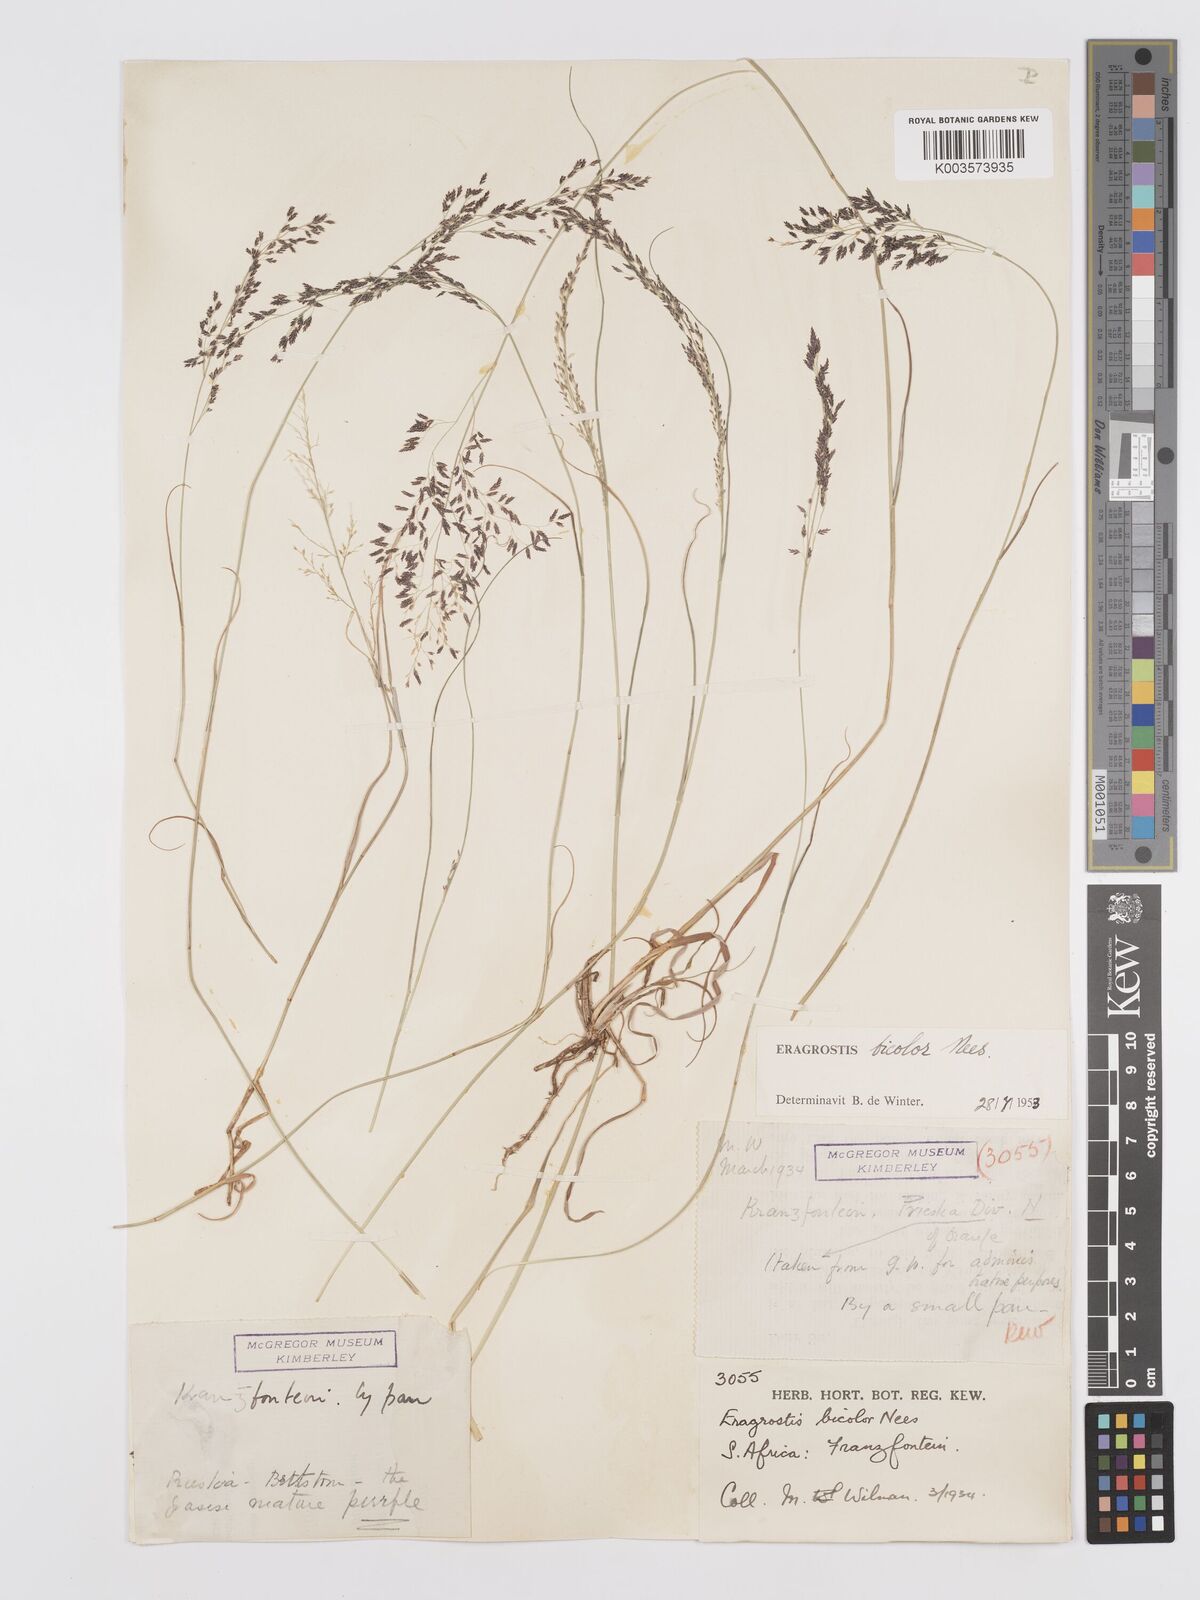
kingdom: Plantae
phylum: Tracheophyta
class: Liliopsida
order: Poales
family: Poaceae
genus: Eragrostis
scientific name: Eragrostis
